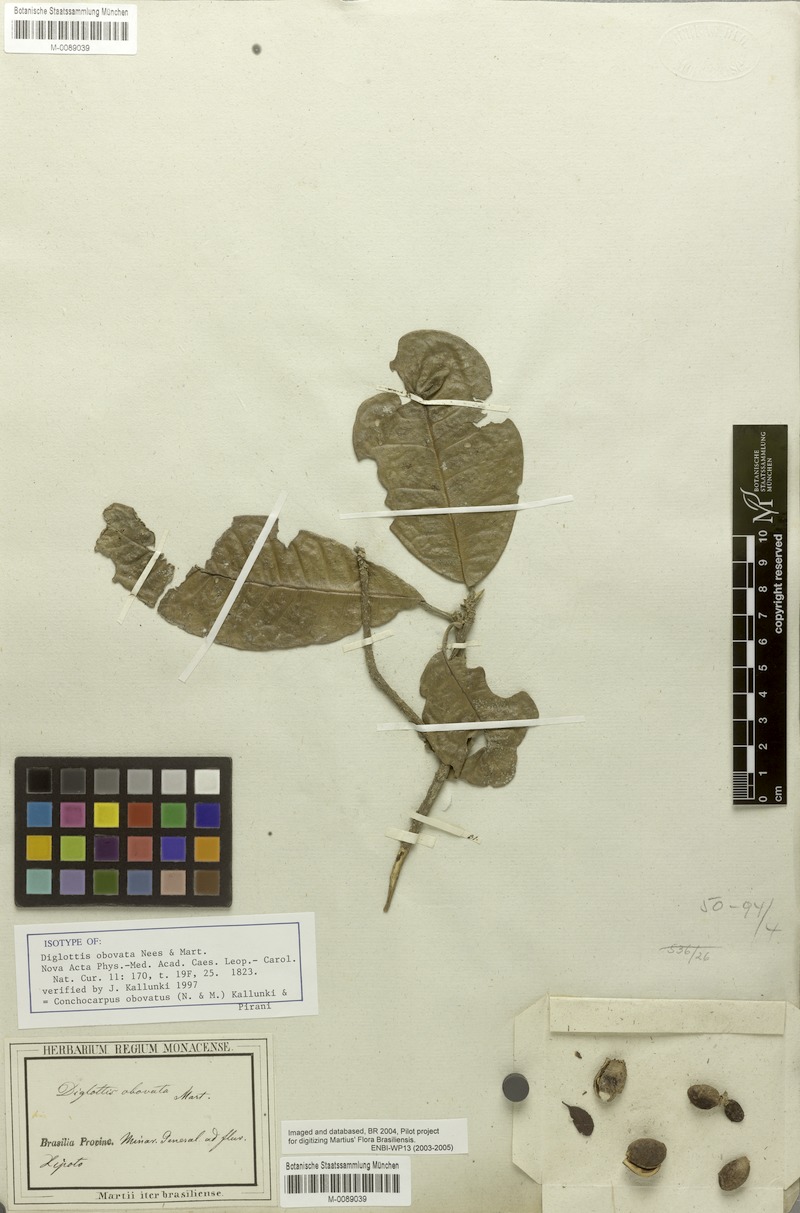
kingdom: Plantae
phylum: Tracheophyta
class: Magnoliopsida
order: Sapindales
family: Rutaceae
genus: Conchocarpus
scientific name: Conchocarpus obovatus
